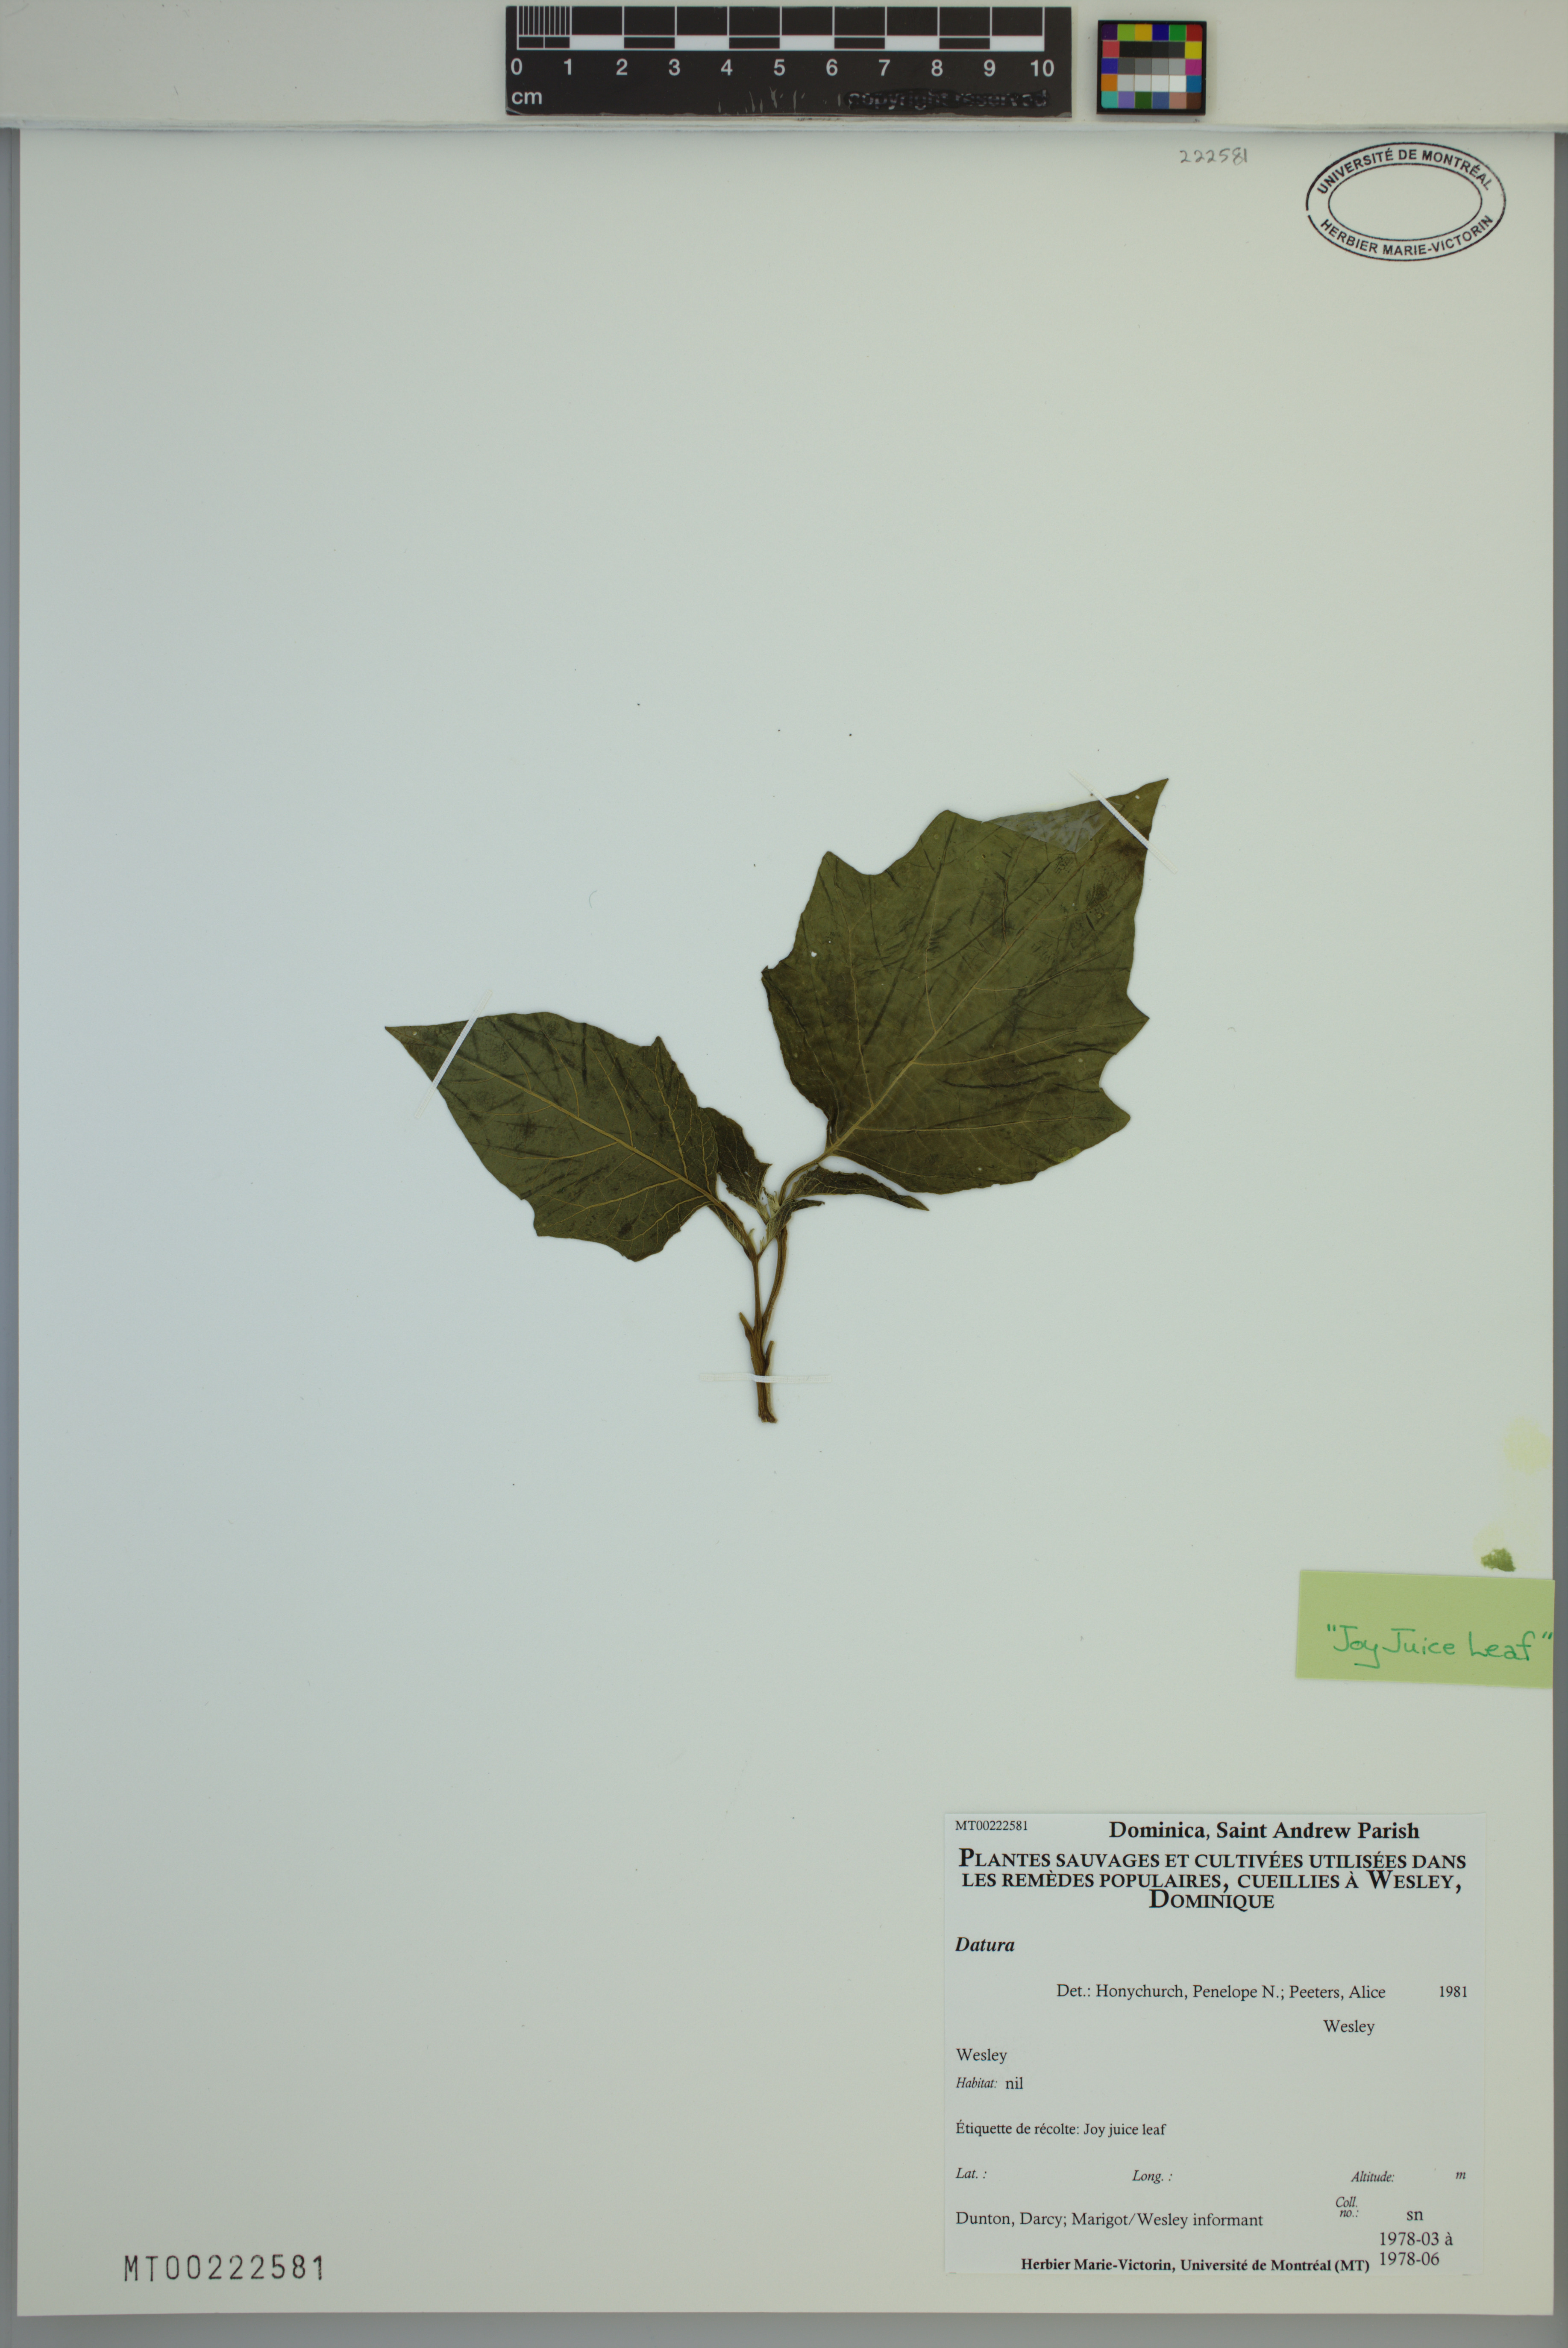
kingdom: Plantae
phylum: Tracheophyta
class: Magnoliopsida
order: Solanales
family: Solanaceae
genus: Datura
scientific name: Datura
